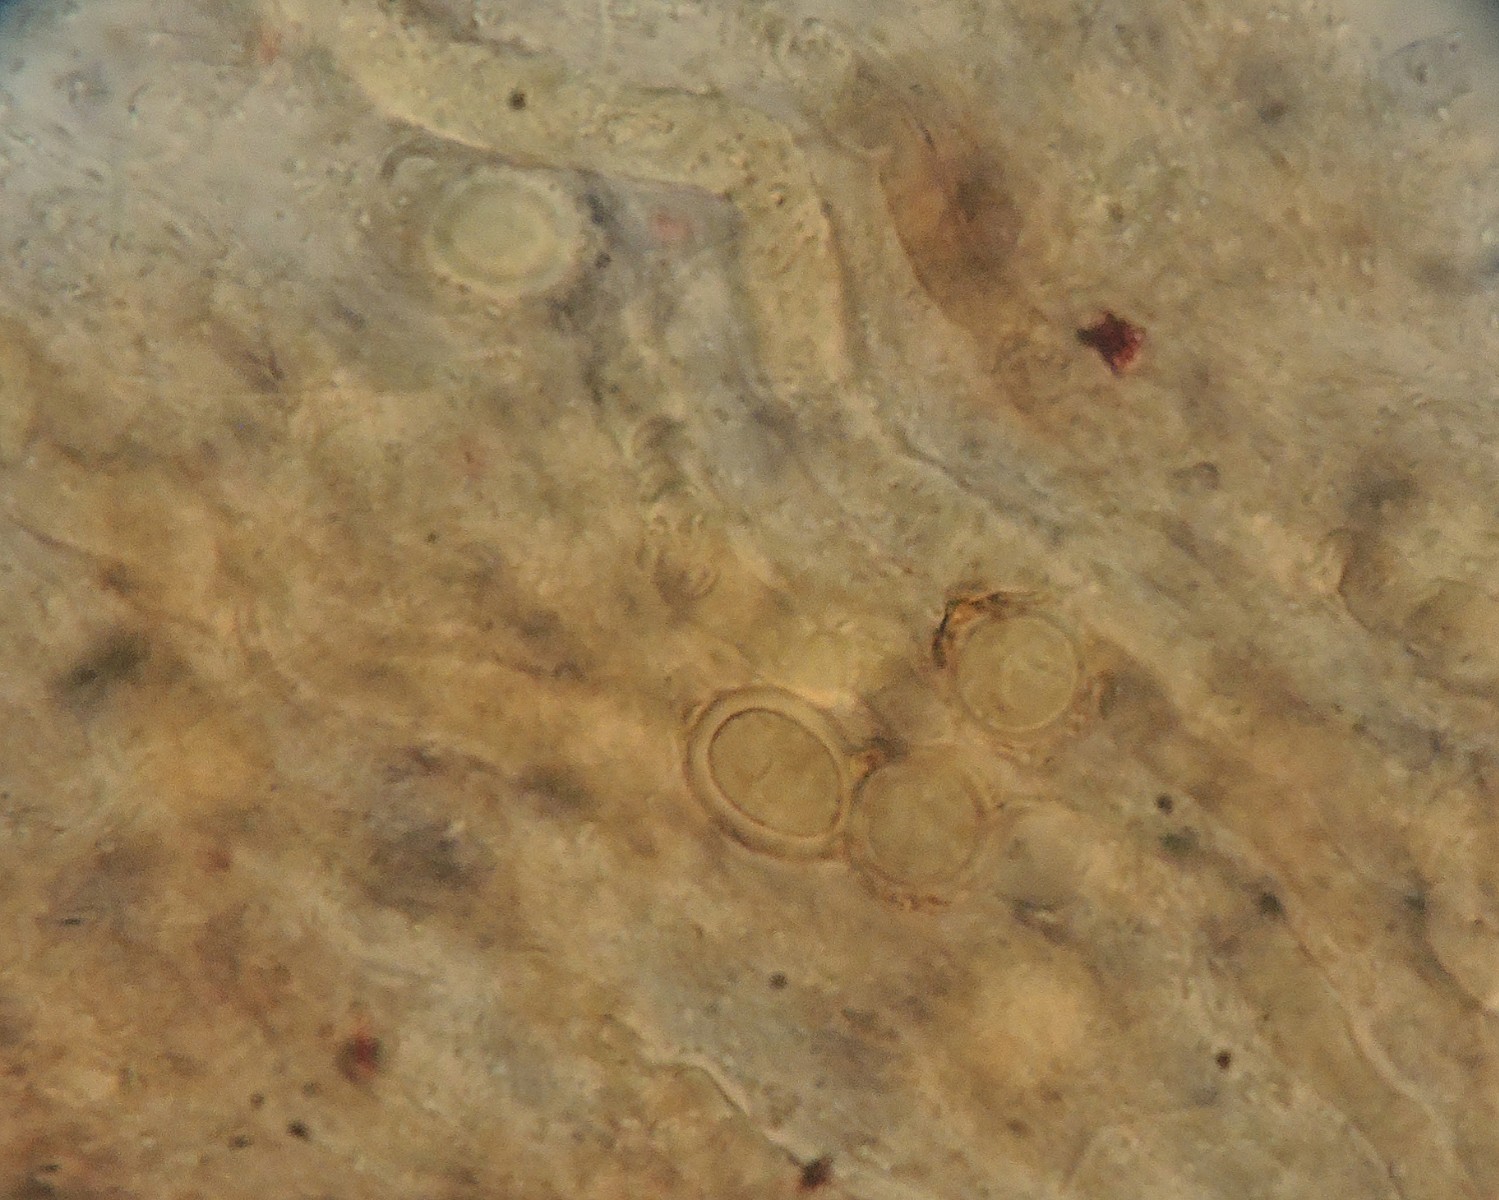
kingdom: Fungi
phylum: Basidiomycota
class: Agaricomycetes
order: Russulales
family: Peniophoraceae
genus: Gloiothele
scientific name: Gloiothele lactescens
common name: bitter olieskind
